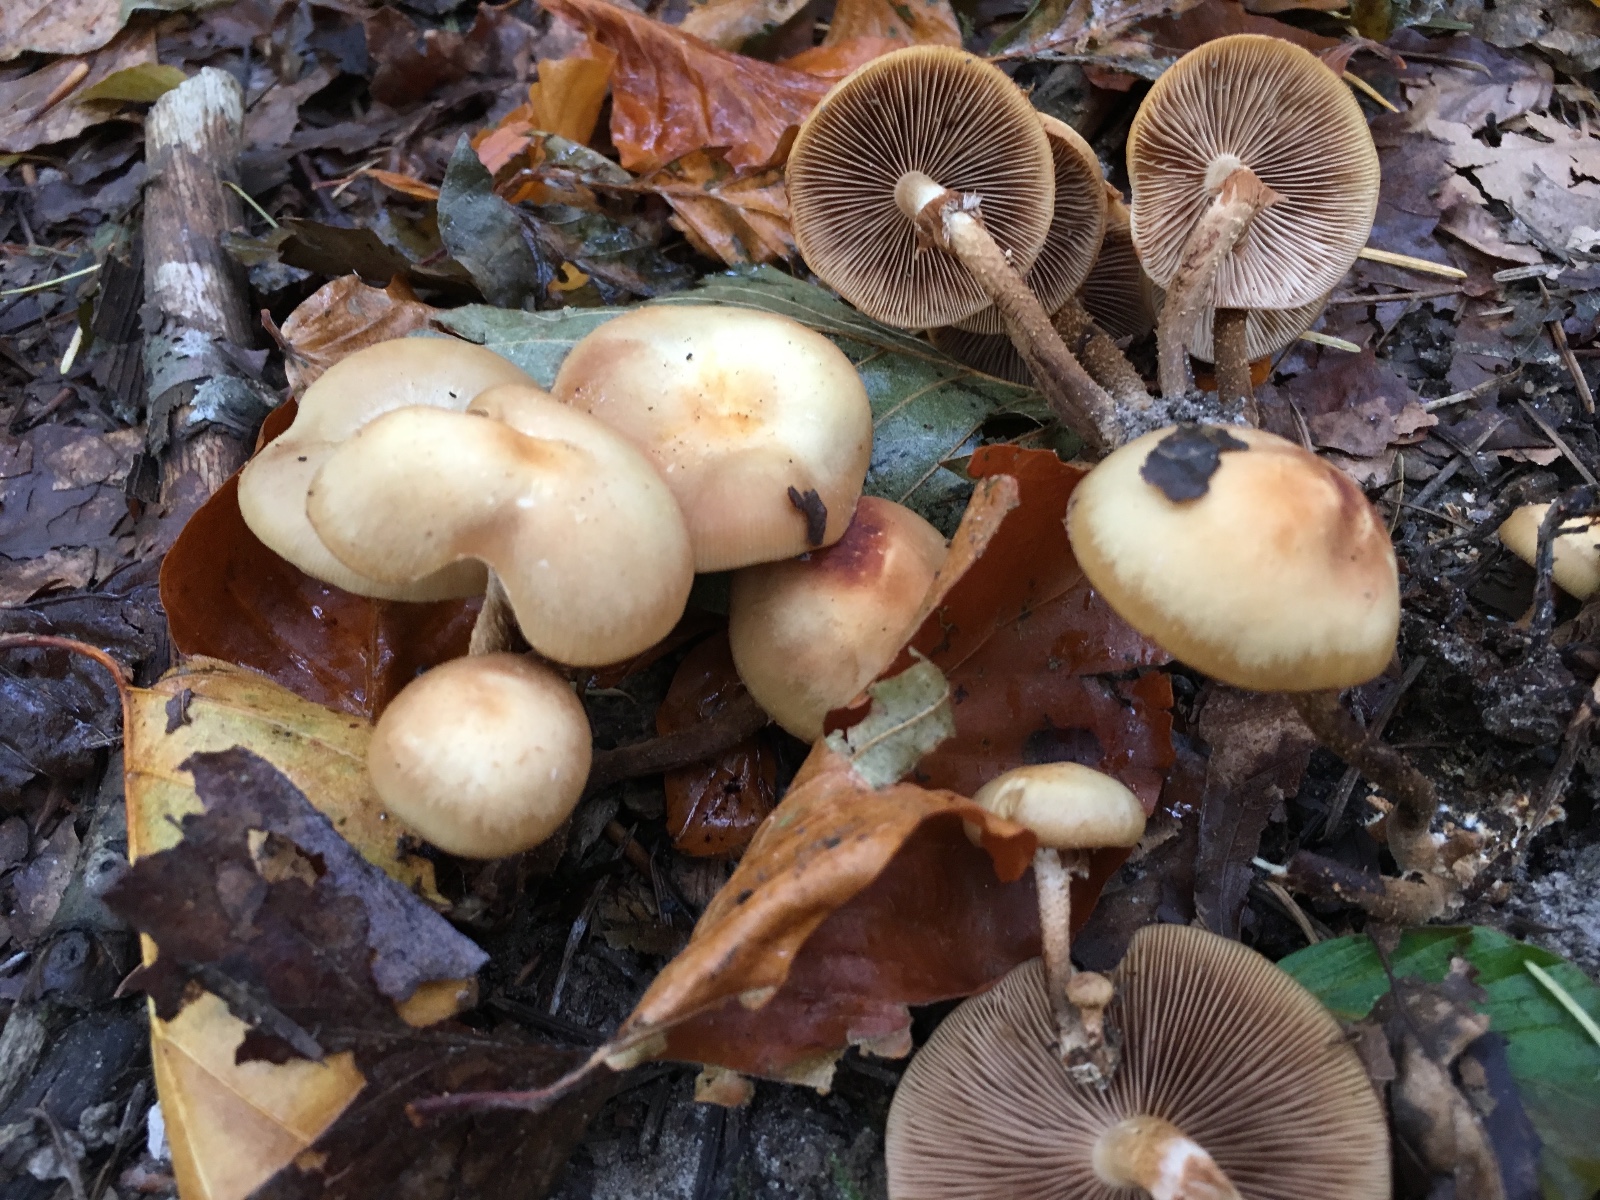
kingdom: Fungi
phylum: Basidiomycota
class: Agaricomycetes
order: Agaricales
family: Strophariaceae
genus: Kuehneromyces
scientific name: Kuehneromyces mutabilis
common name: foranderlig skælhat
